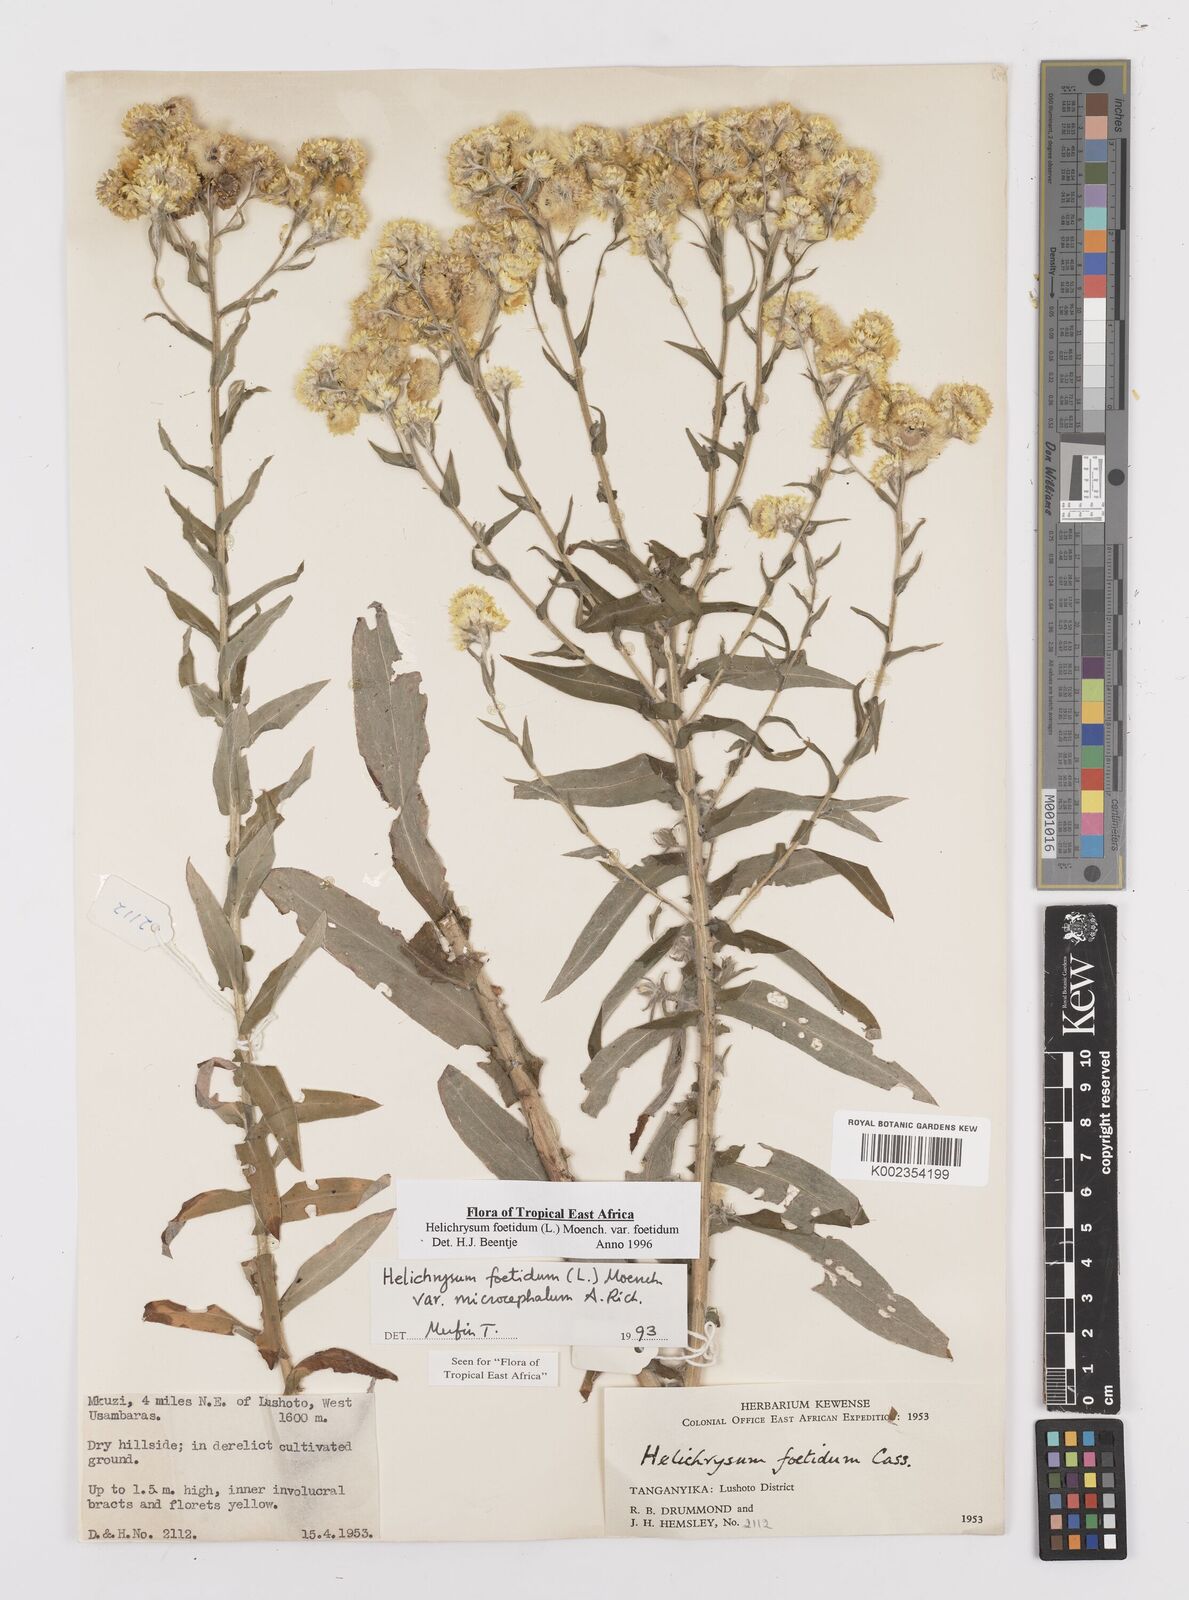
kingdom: Plantae
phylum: Tracheophyta
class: Magnoliopsida
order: Asterales
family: Asteraceae
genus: Helichrysum
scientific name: Helichrysum foetidum
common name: Stinking everlasting
